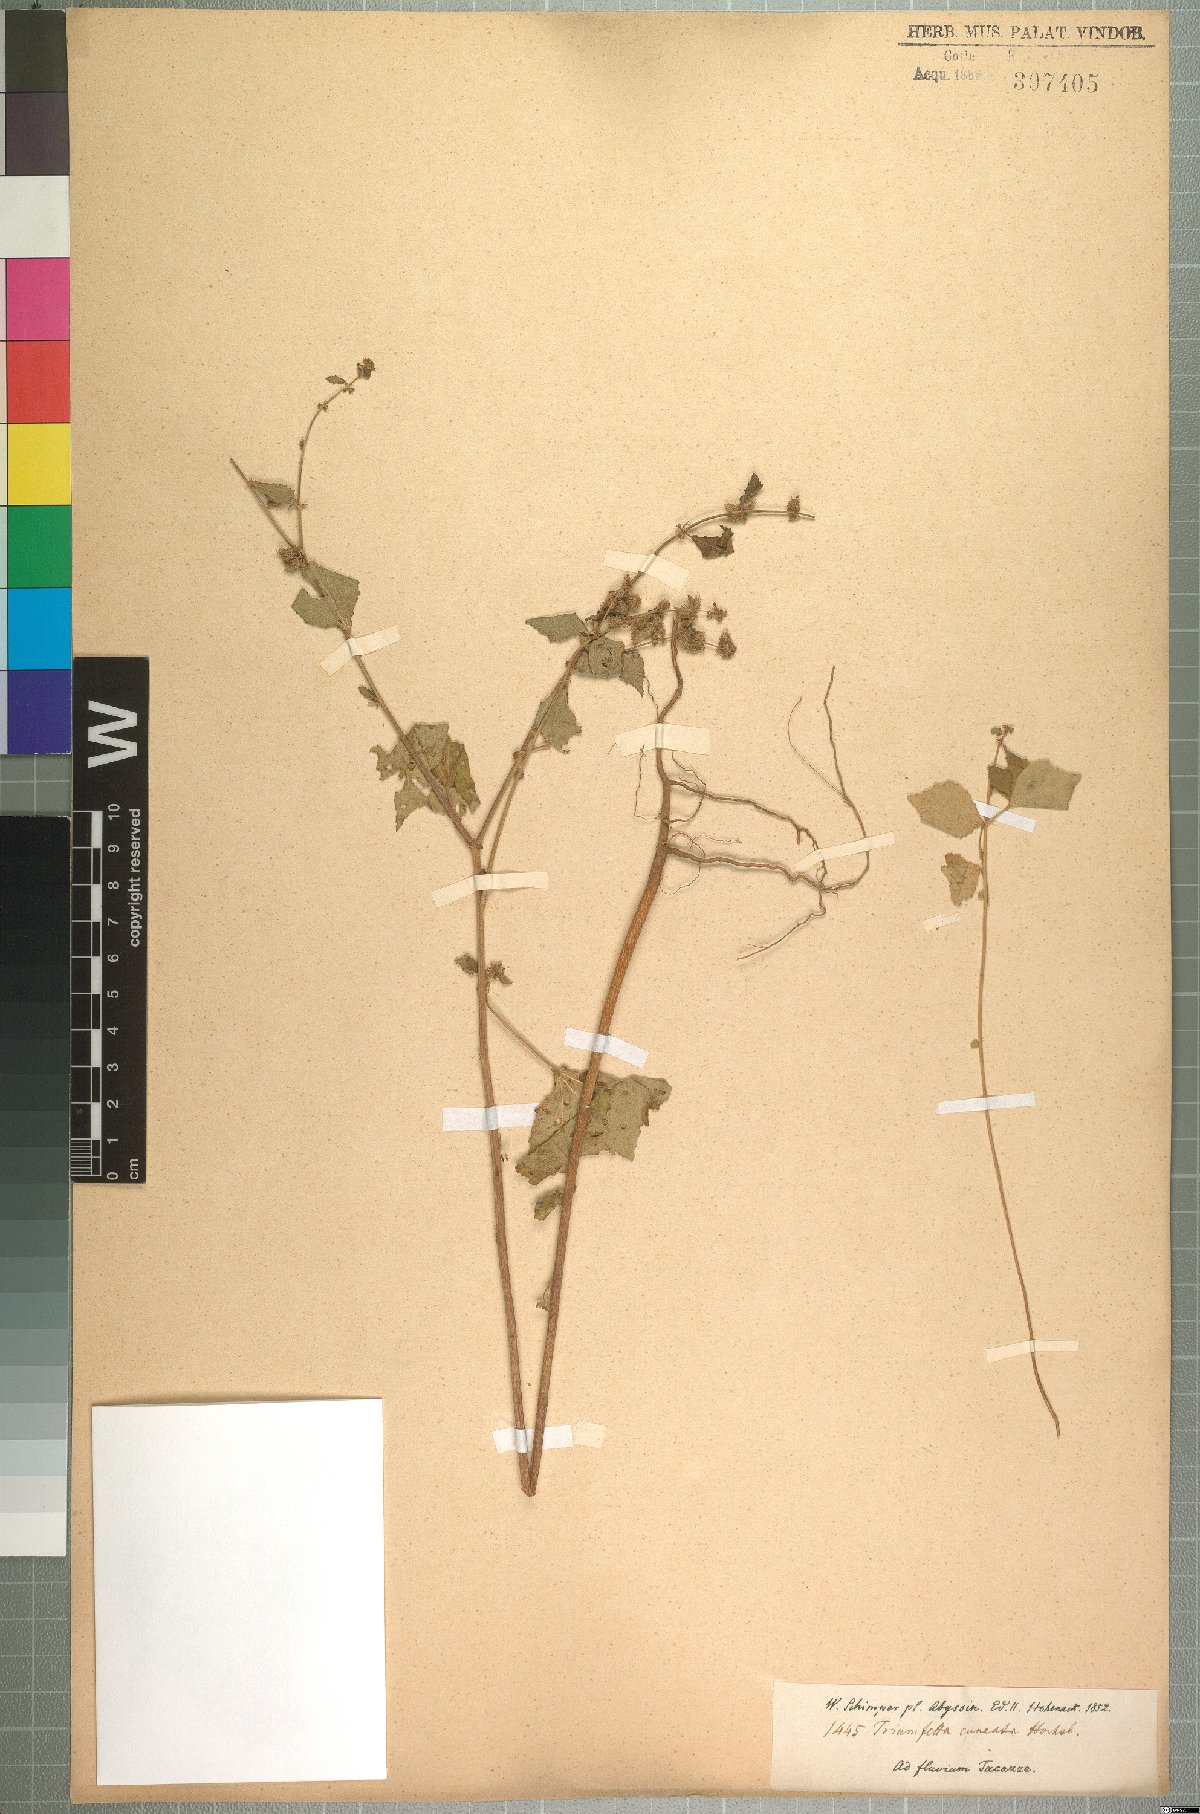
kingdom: Plantae
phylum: Tracheophyta
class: Magnoliopsida
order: Malvales
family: Malvaceae
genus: Triumfetta
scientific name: Triumfetta pentandra
